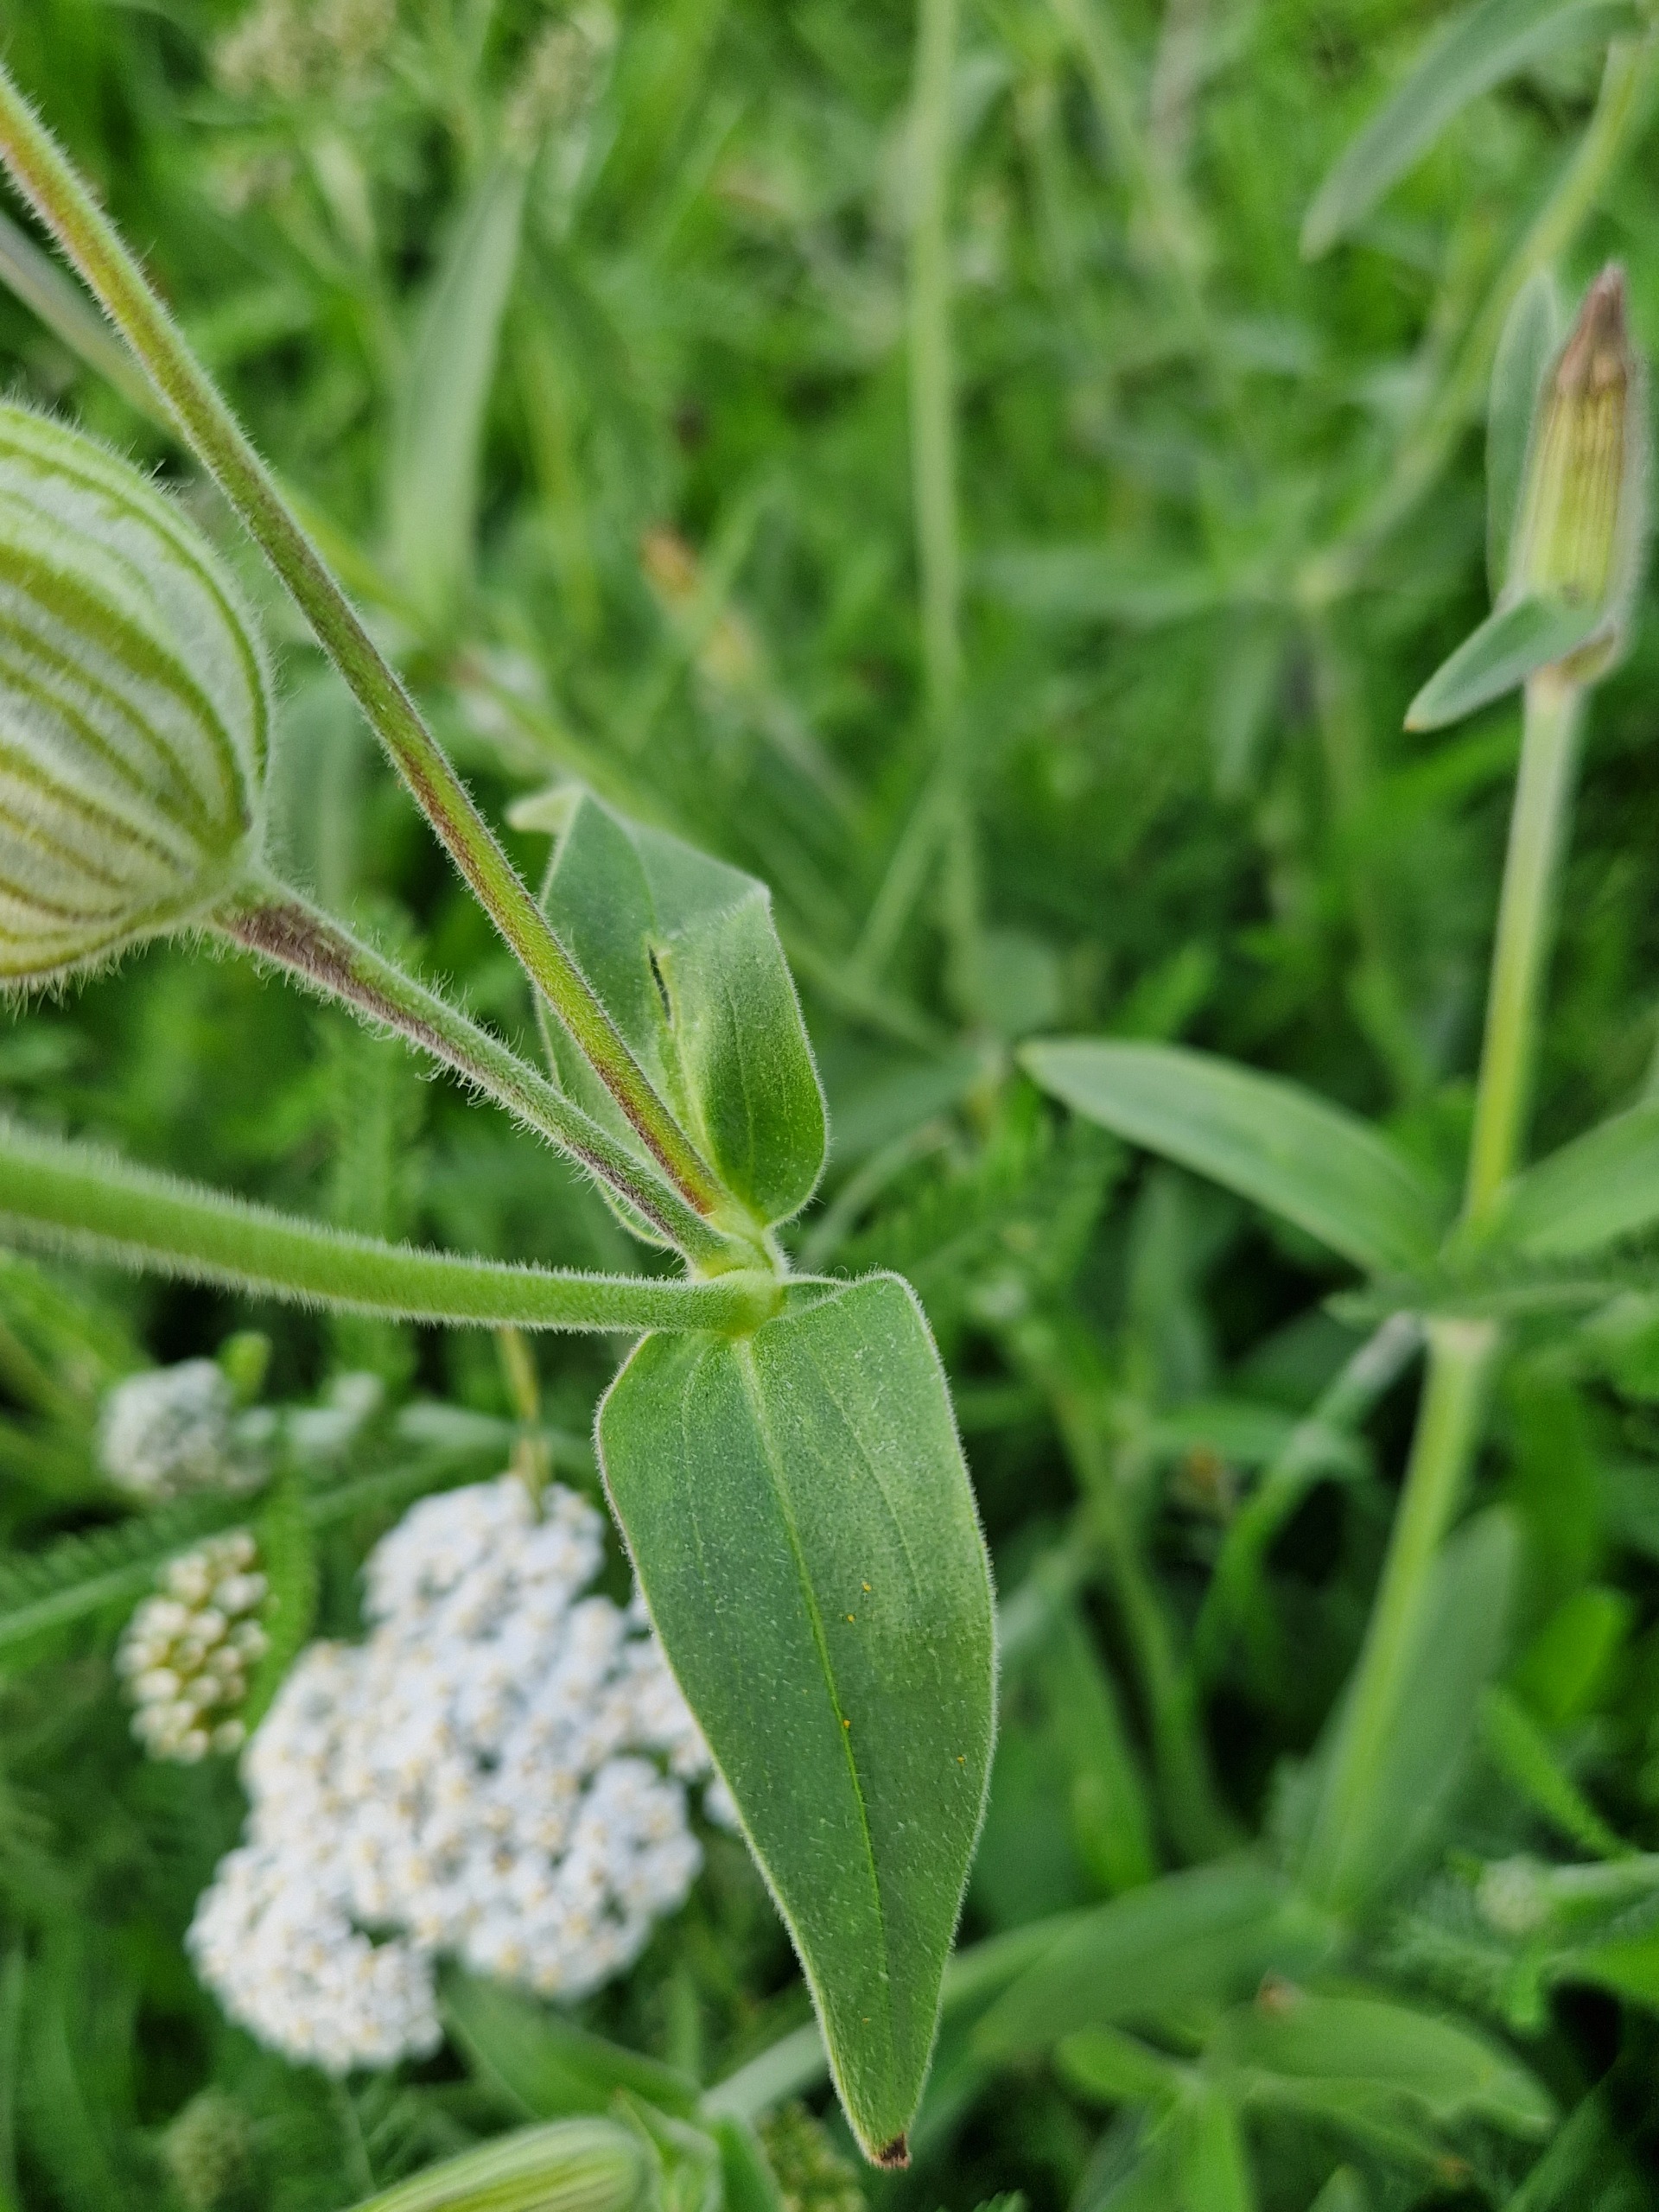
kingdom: Plantae
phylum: Tracheophyta
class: Magnoliopsida
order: Caryophyllales
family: Caryophyllaceae
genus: Silene
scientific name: Silene latifolia
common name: Aftenpragtstjerne
